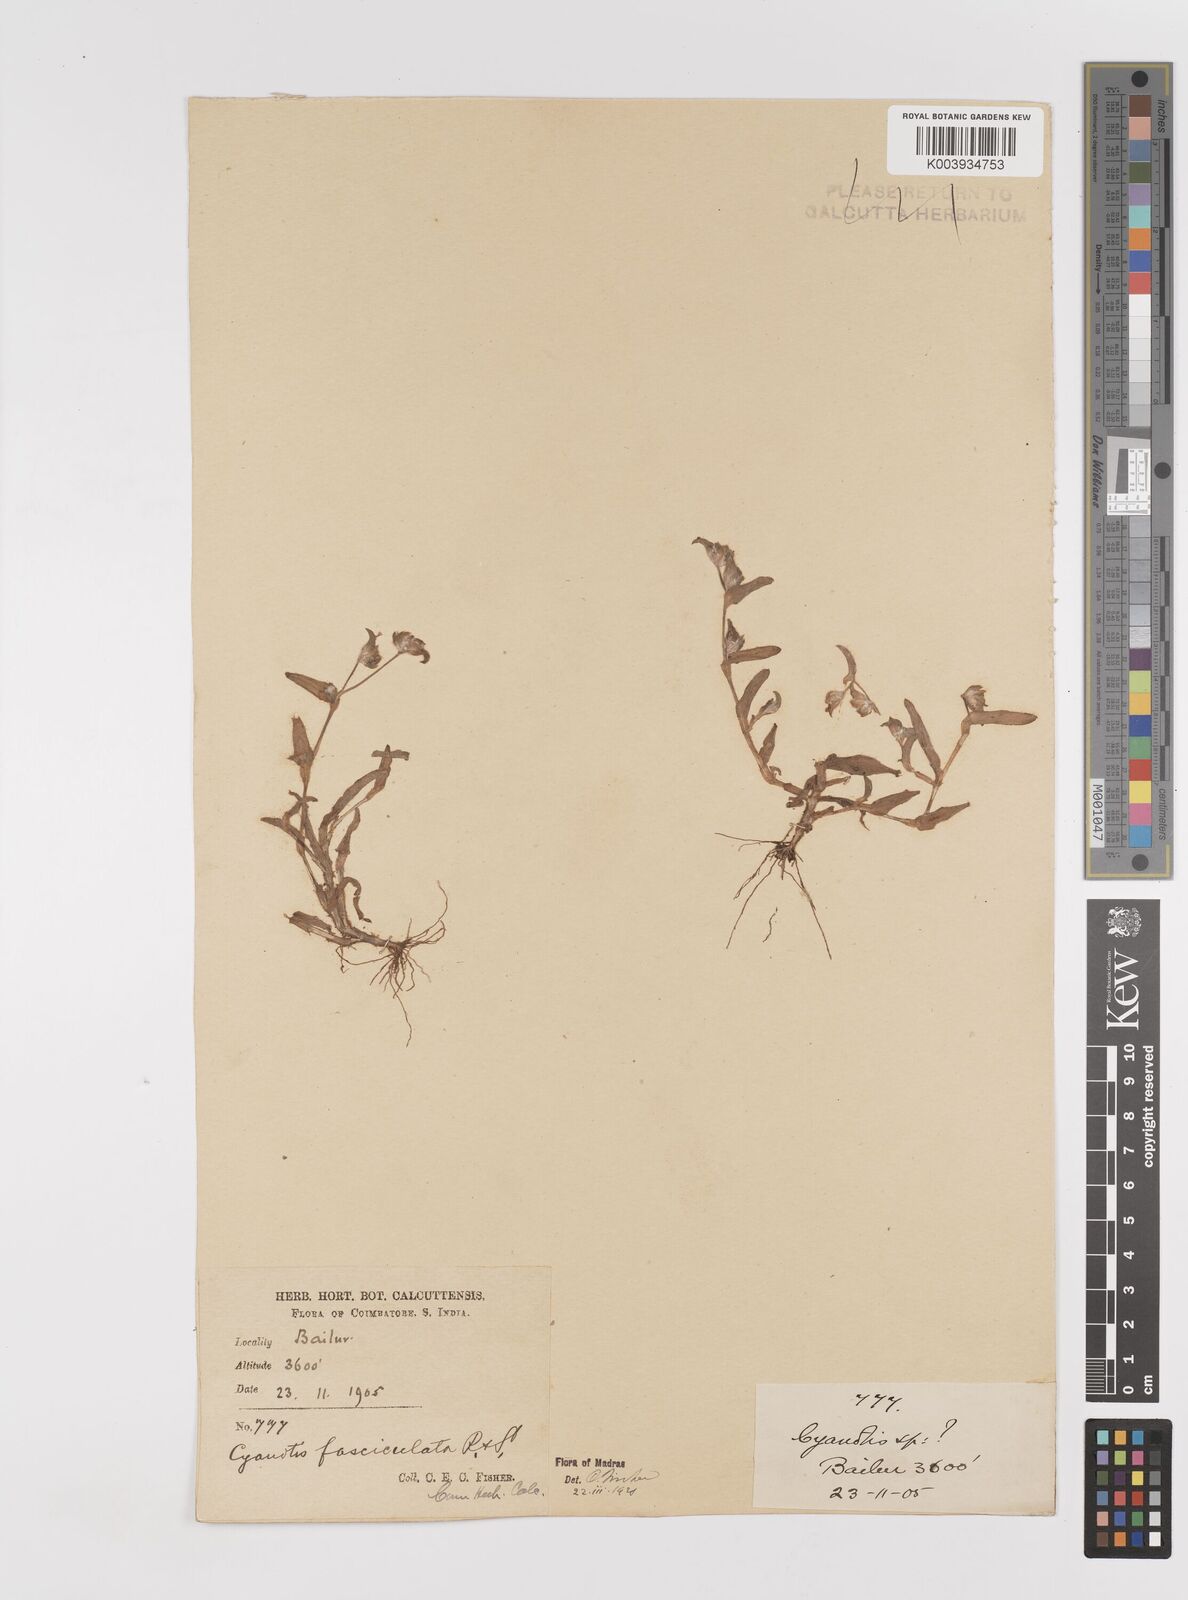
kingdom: Plantae
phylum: Tracheophyta
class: Liliopsida
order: Commelinales
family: Commelinaceae
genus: Cyanotis
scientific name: Cyanotis fasciculata
